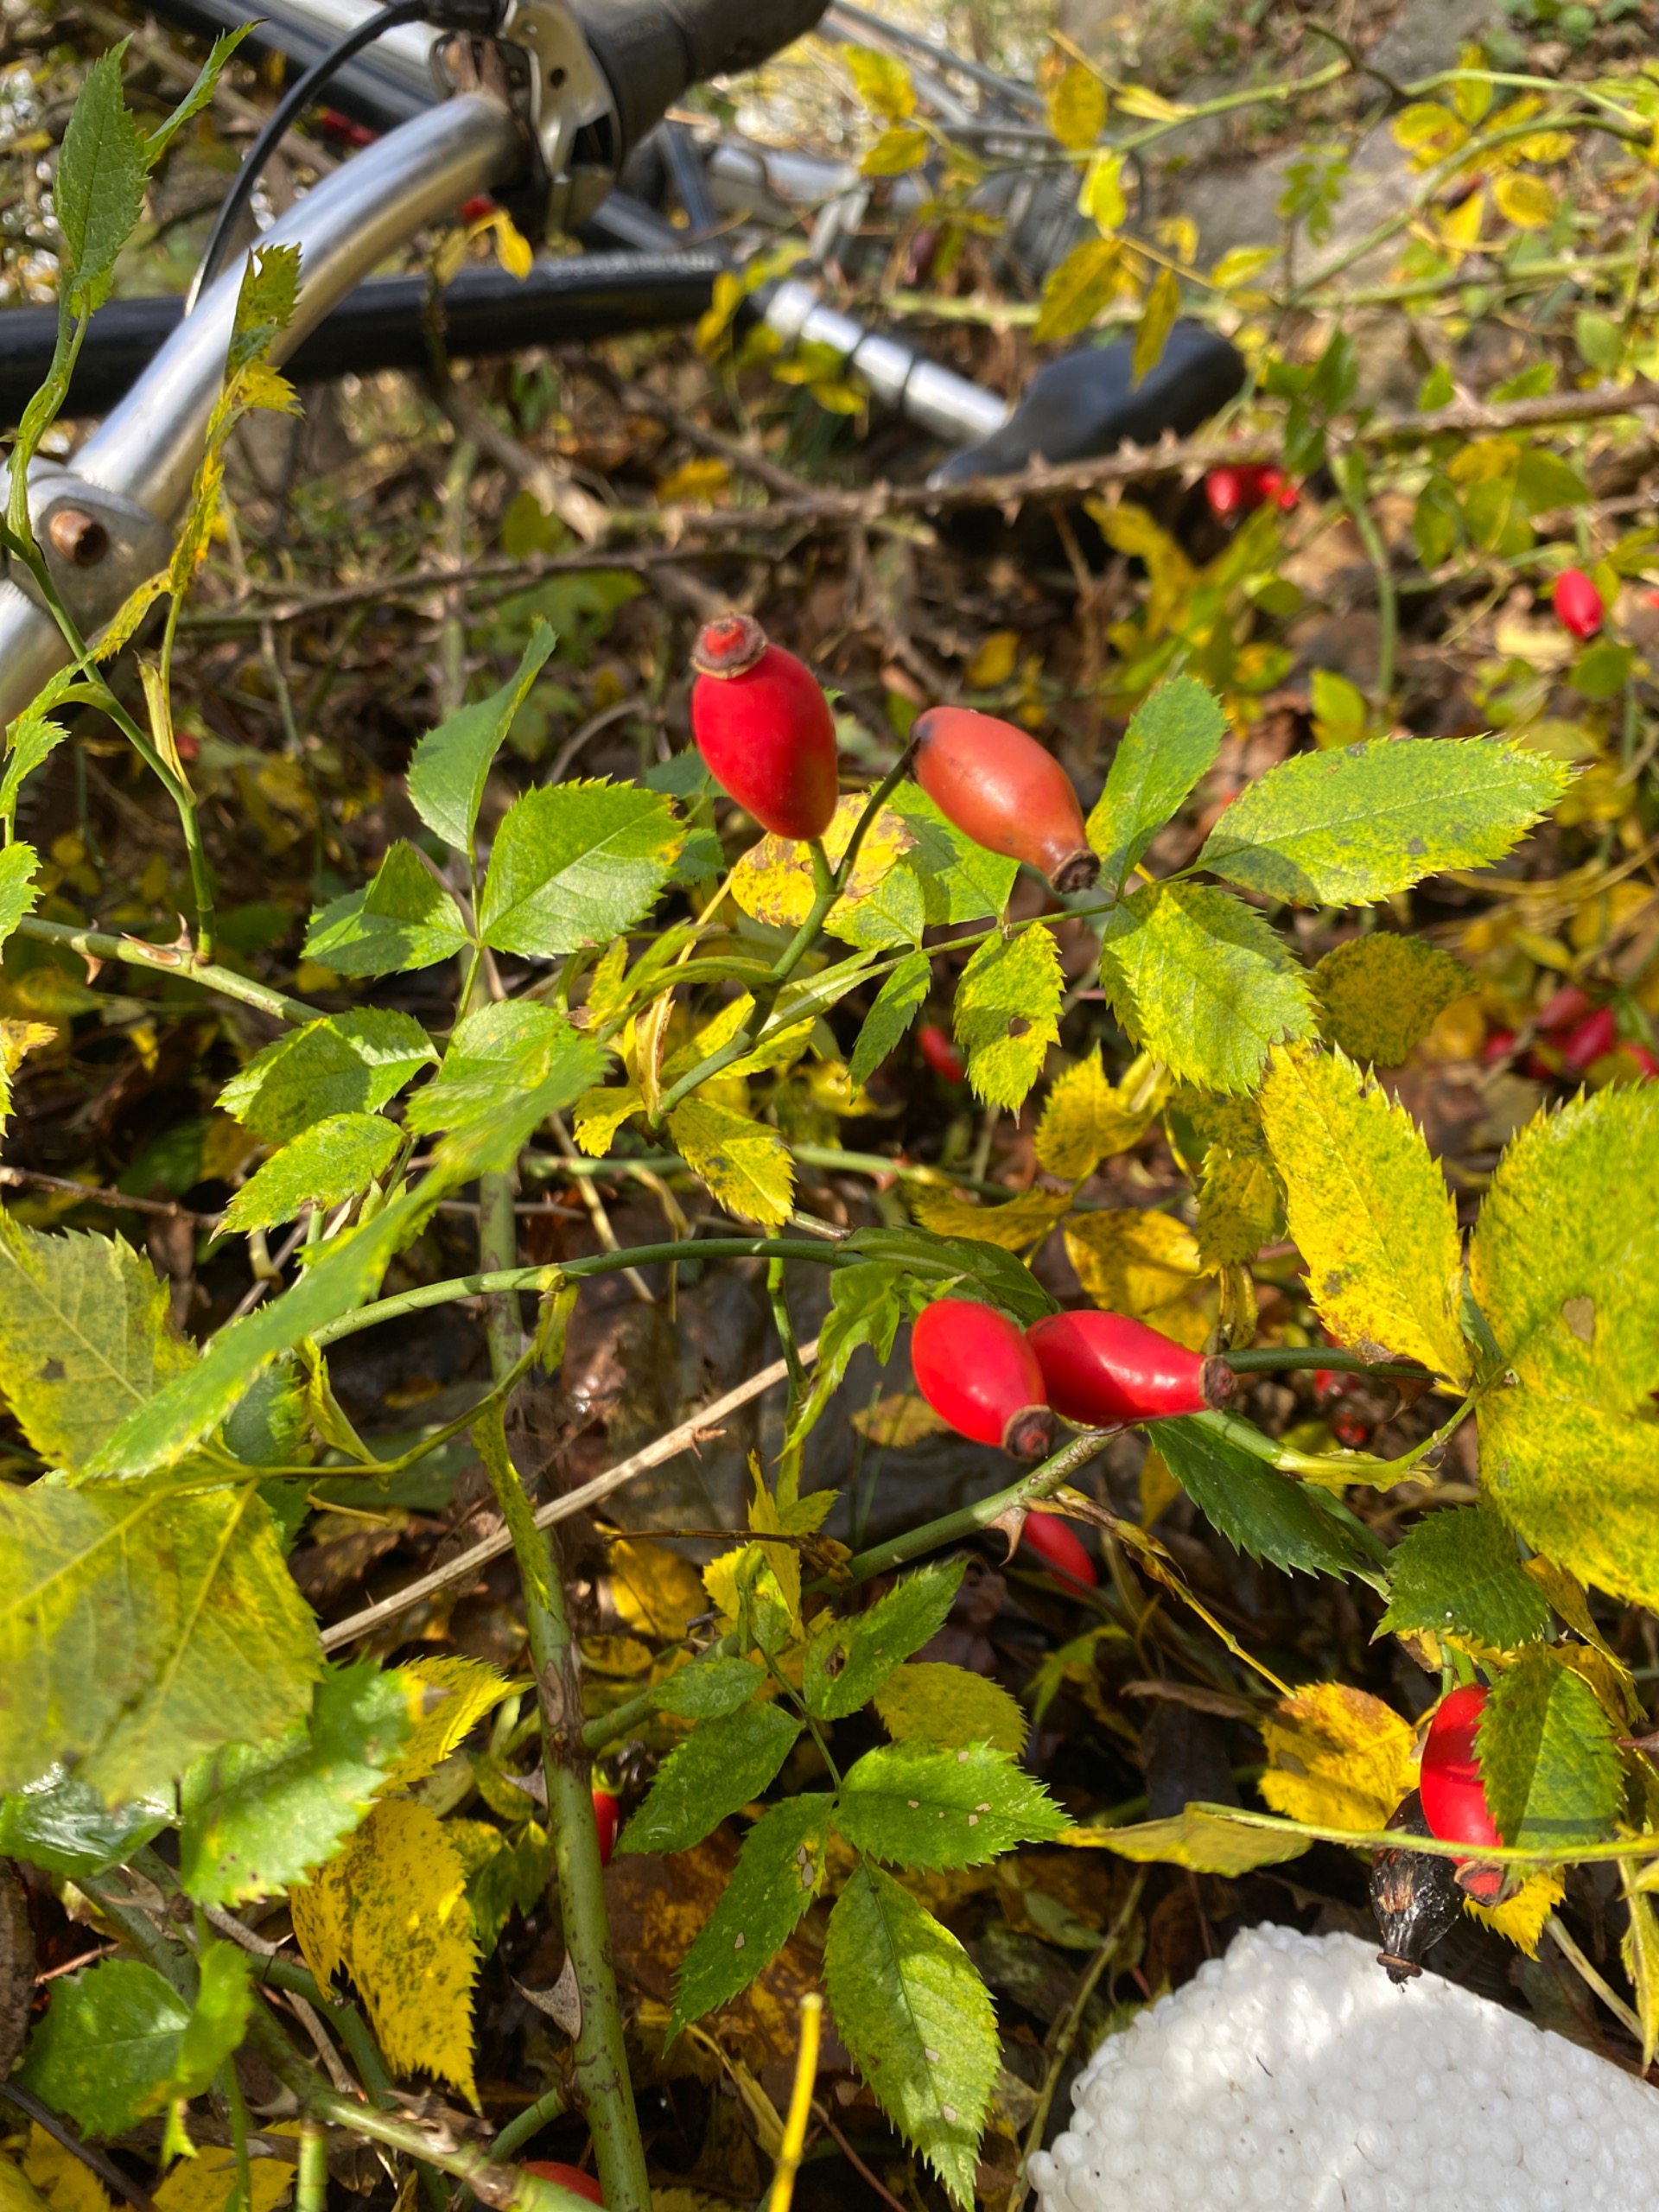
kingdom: Plantae
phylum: Tracheophyta
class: Magnoliopsida
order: Rosales
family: Rosaceae
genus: Rosa
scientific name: Rosa canina
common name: Glat hunde-rose
